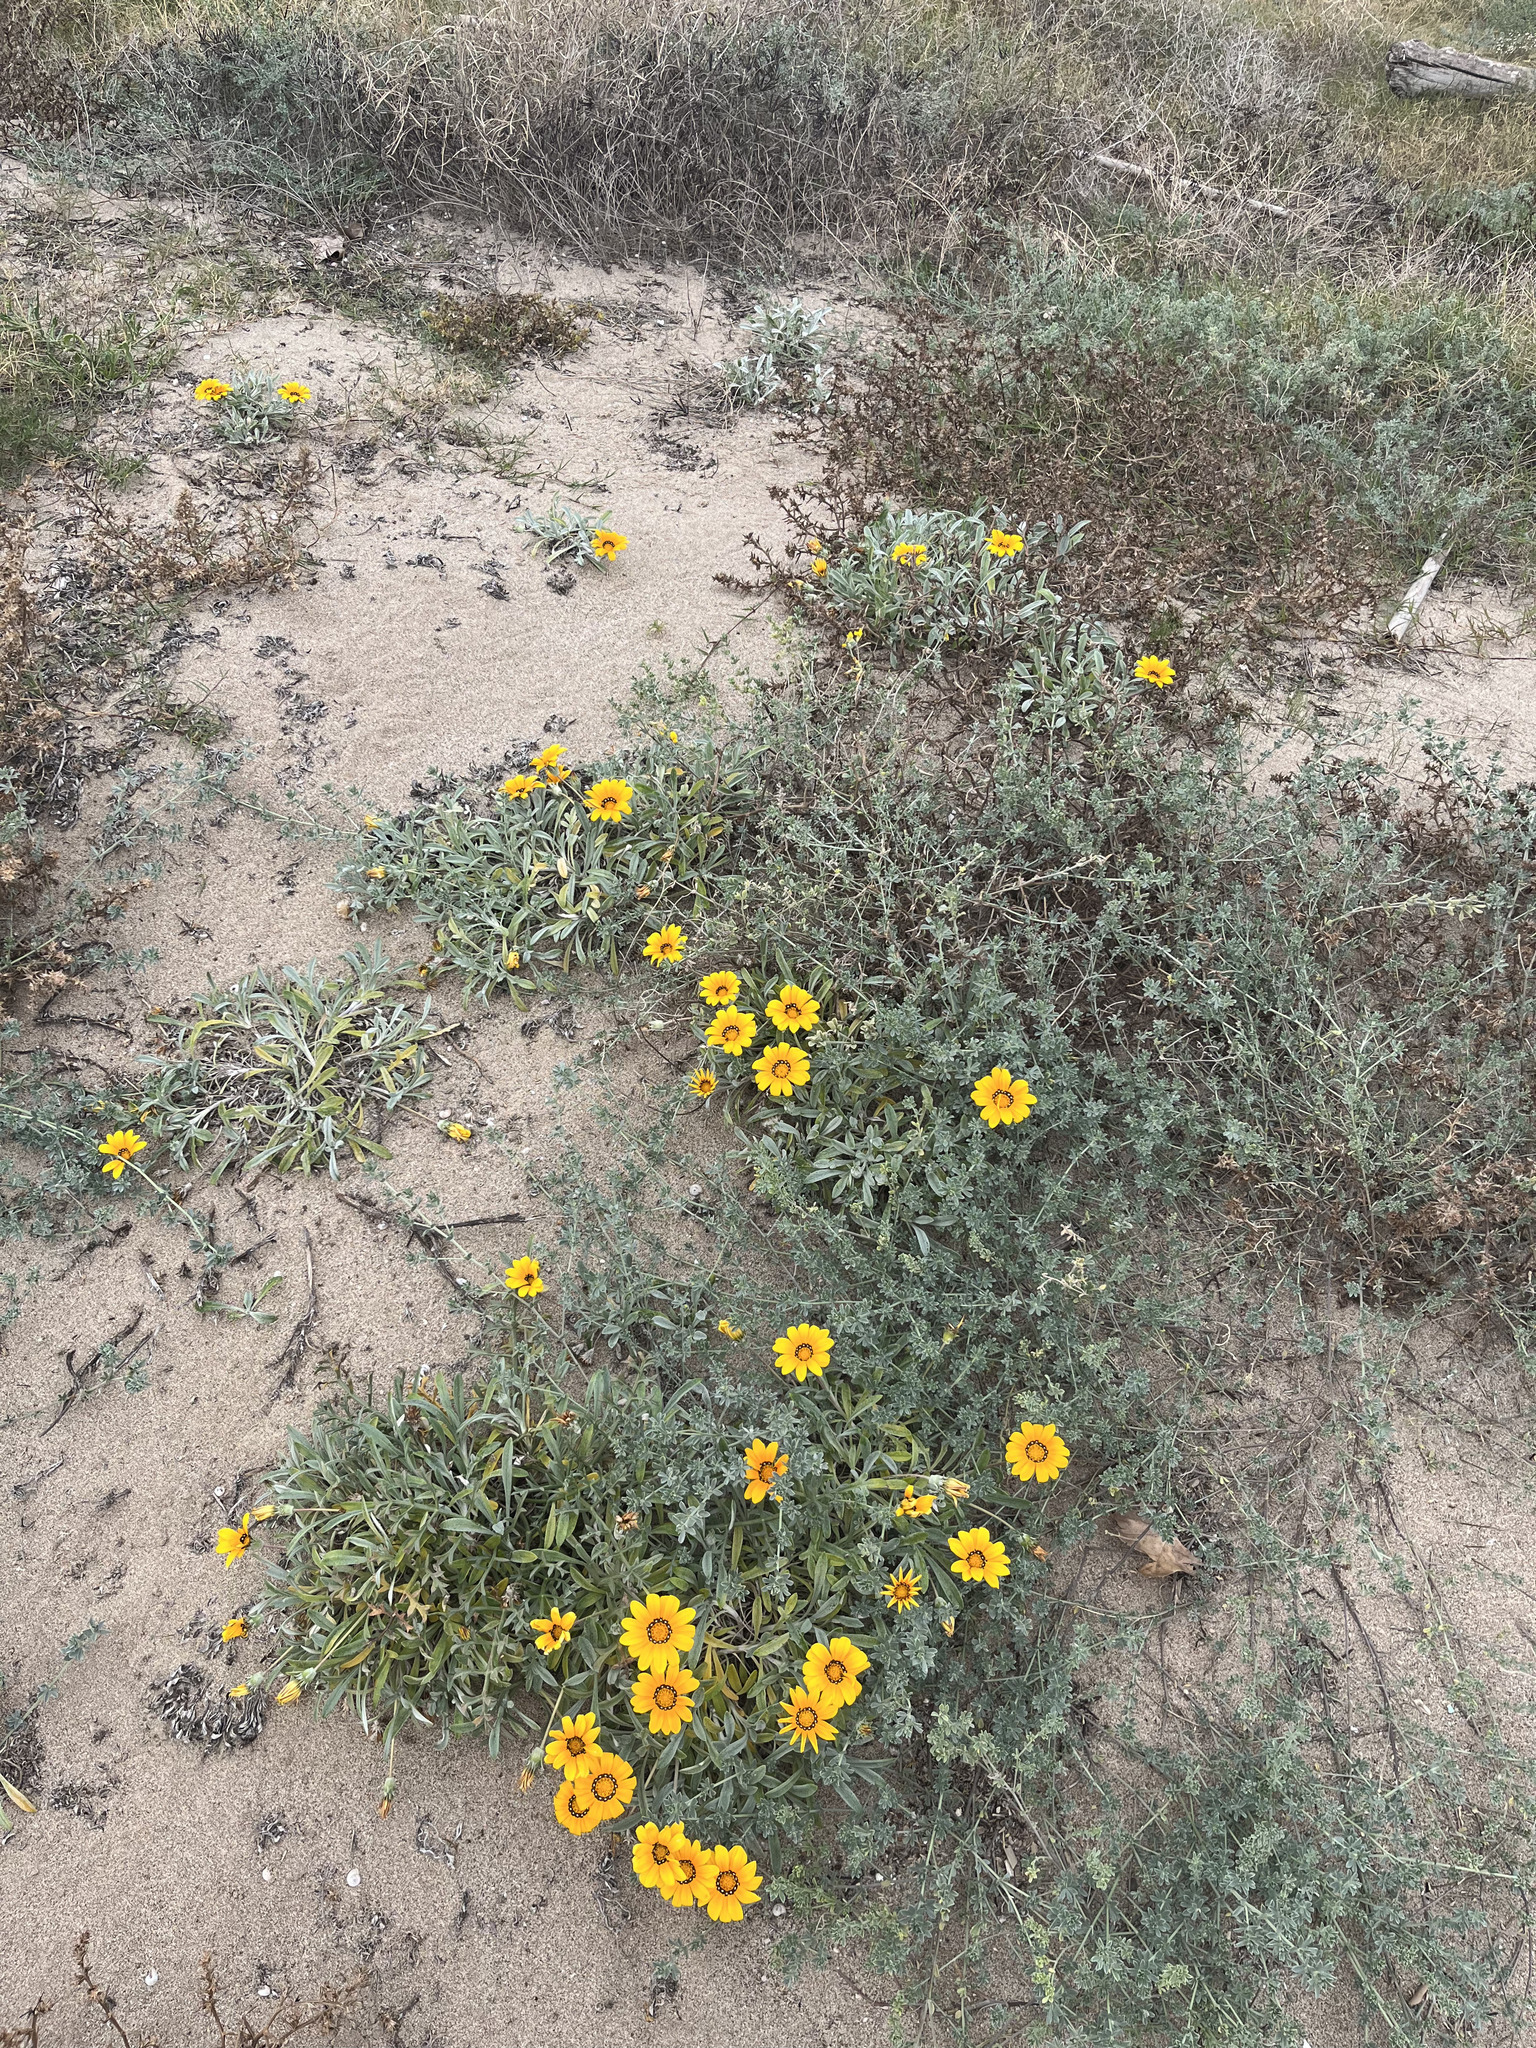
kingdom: Plantae
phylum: Tracheophyta
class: Magnoliopsida
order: Asterales
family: Asteraceae
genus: Gazania
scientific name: Gazania rigens
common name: Treasureflower
